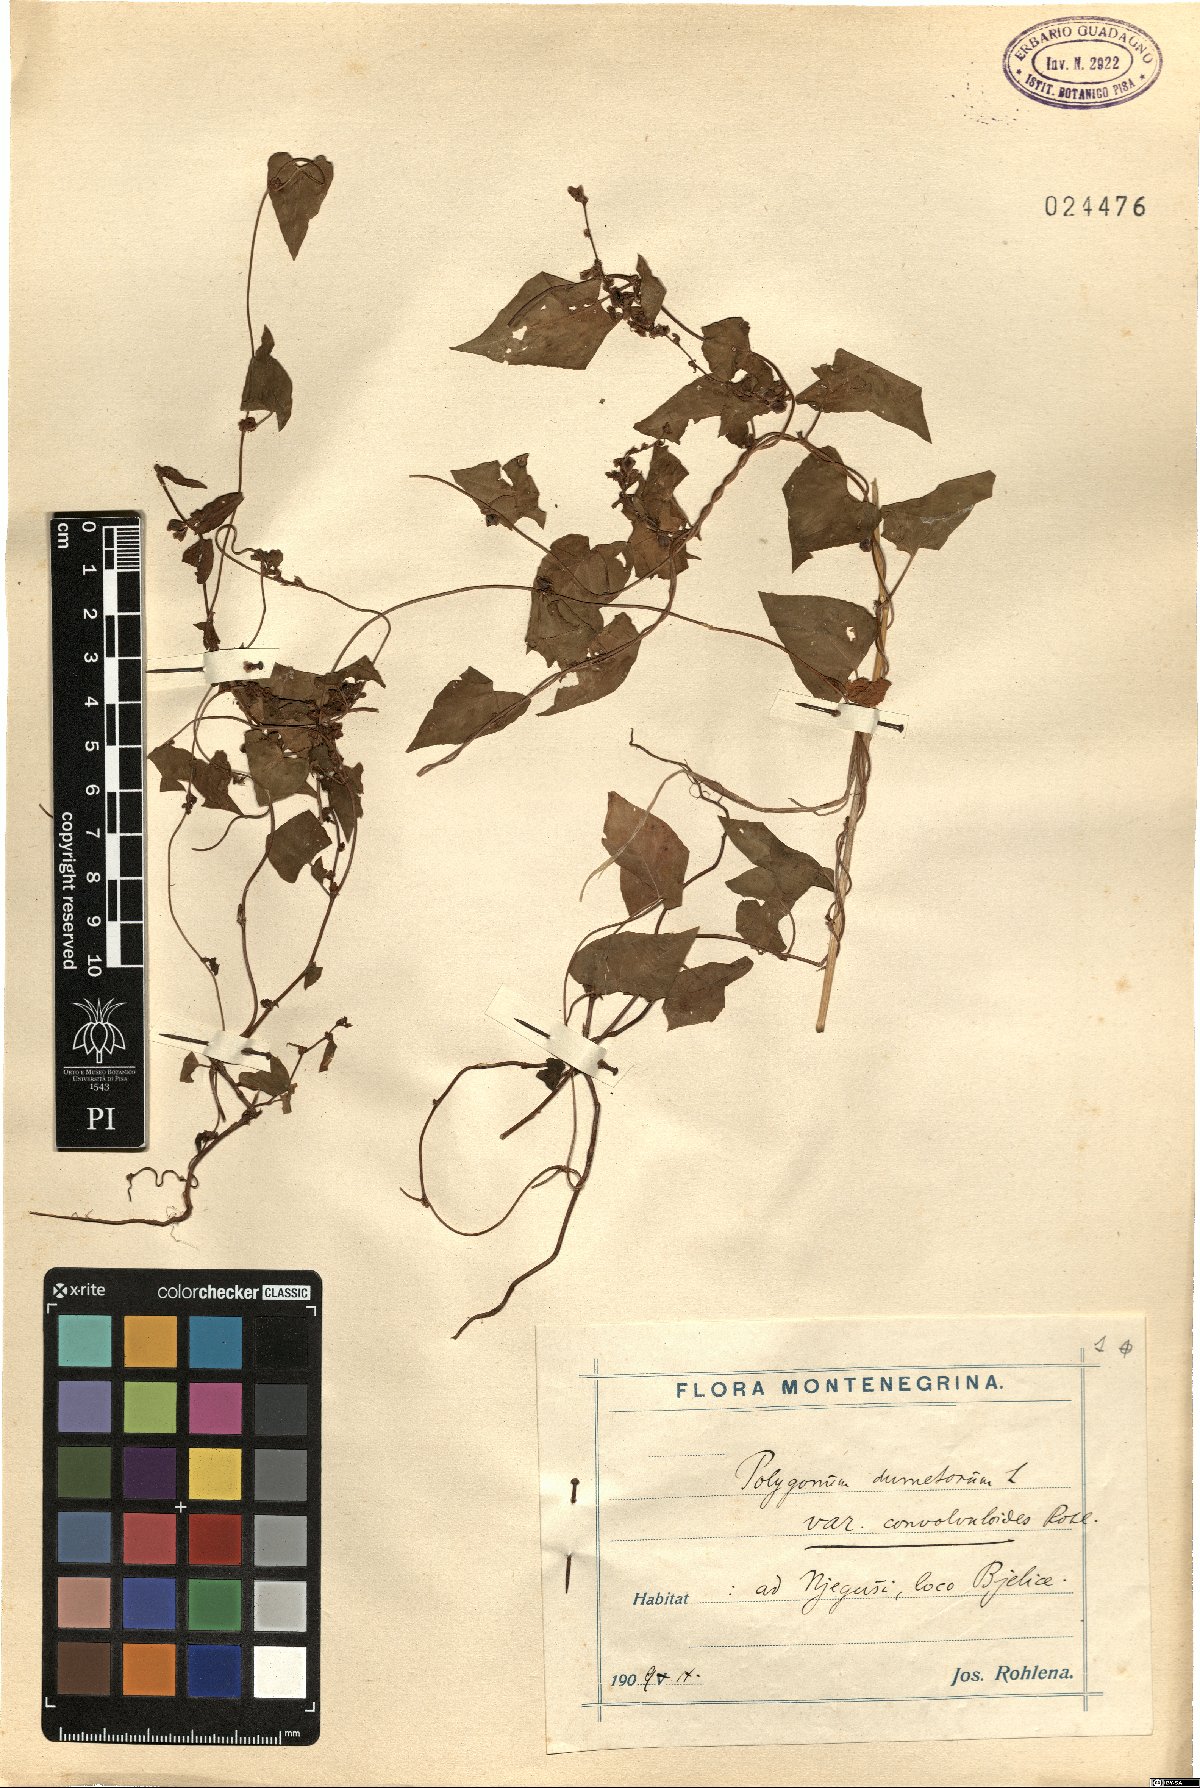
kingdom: Plantae
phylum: Tracheophyta
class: Magnoliopsida
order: Caryophyllales
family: Polygonaceae
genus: Fallopia
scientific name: Fallopia dumetorum
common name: Copse-bindweed
